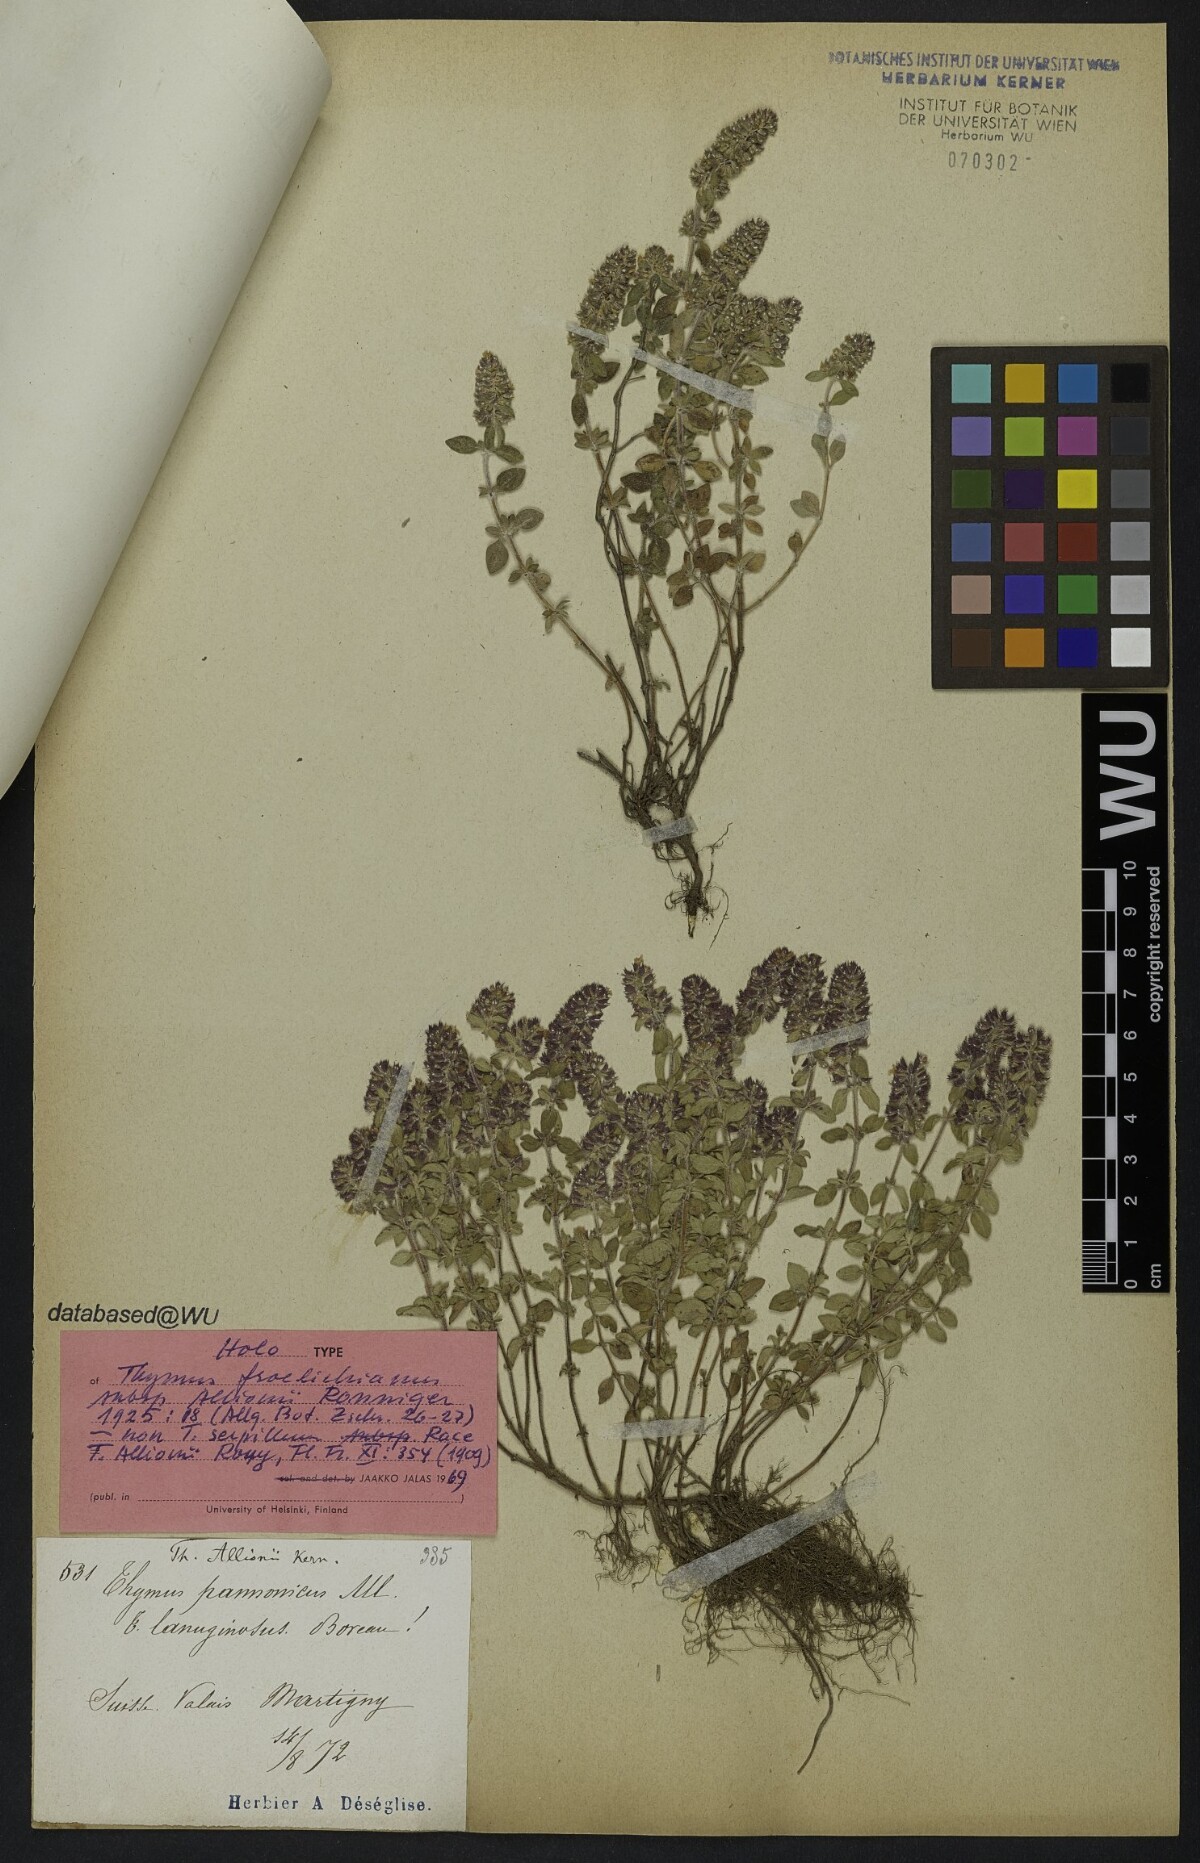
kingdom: Plantae
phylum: Tracheophyta
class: Magnoliopsida
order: Lamiales
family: Lamiaceae
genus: Thymus
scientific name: Thymus pannonicus
